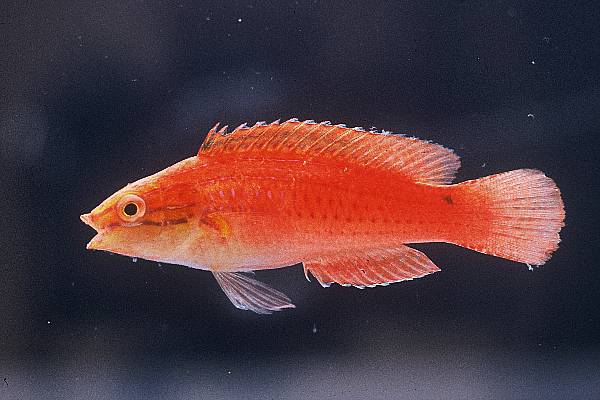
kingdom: Animalia
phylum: Chordata
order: Perciformes
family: Labridae
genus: Cirrhilabrus
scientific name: Cirrhilabrus rubriventralis
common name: Social wrasse
